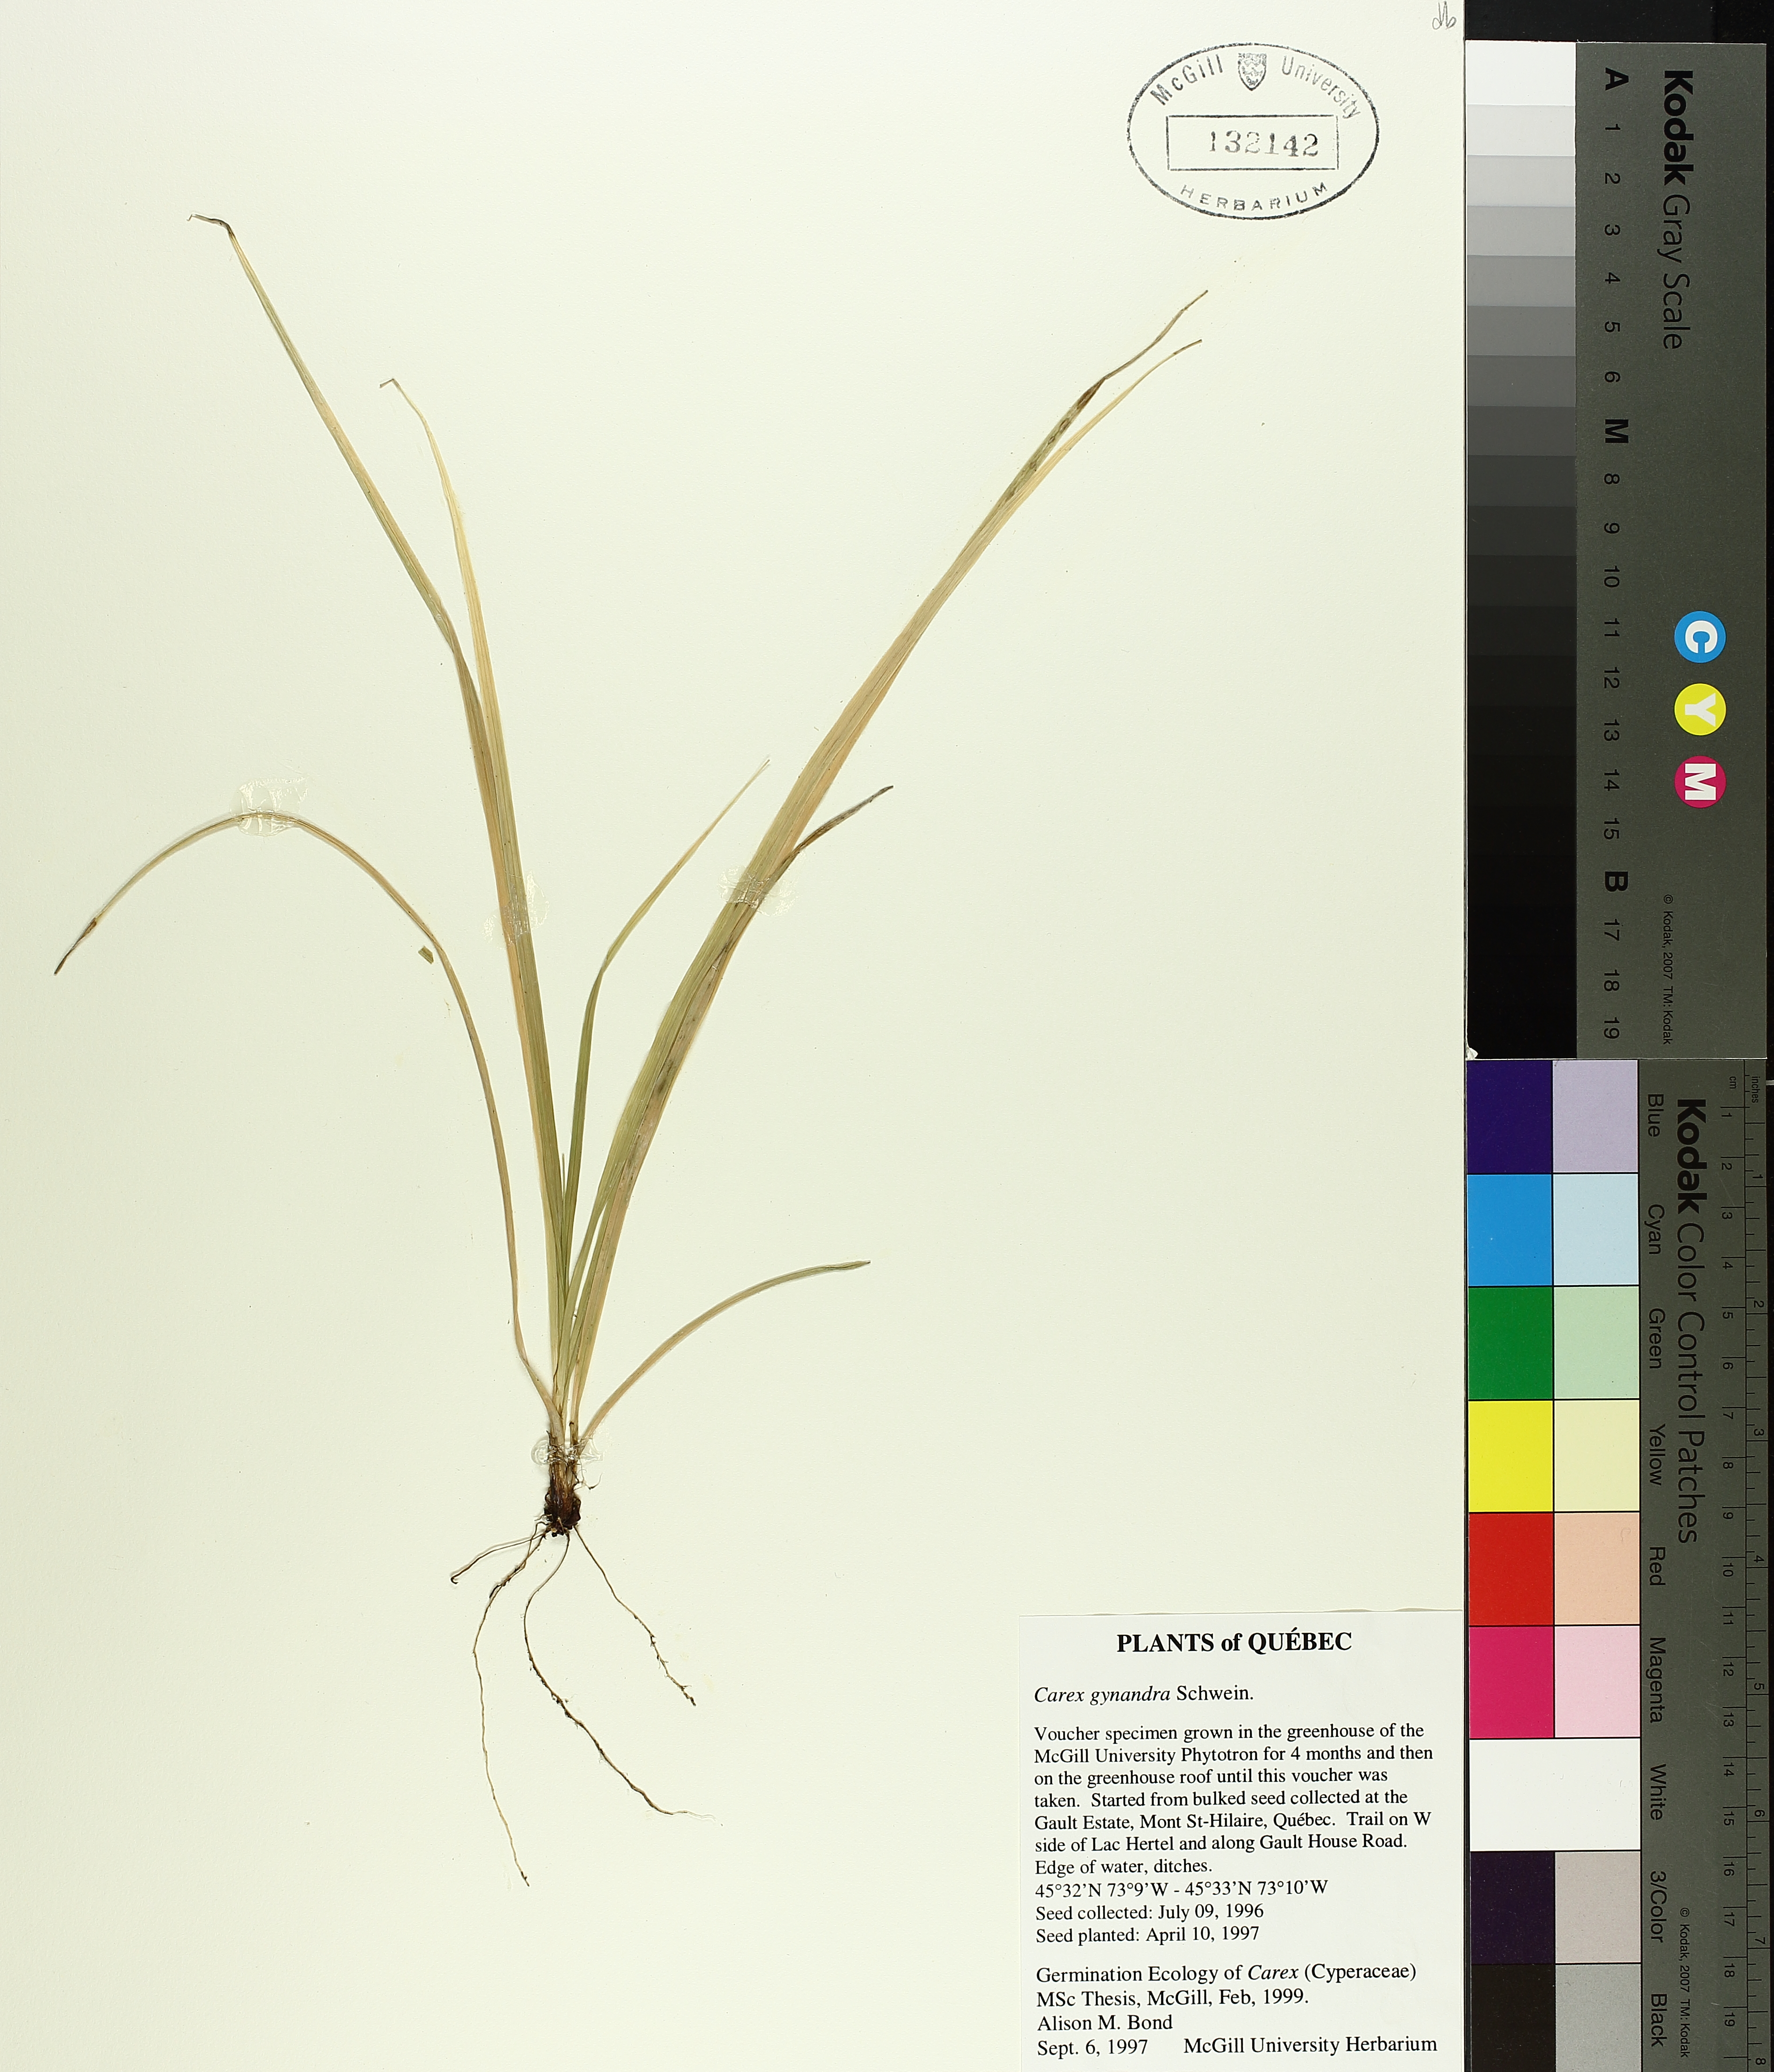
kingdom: Plantae
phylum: Tracheophyta
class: Liliopsida
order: Poales
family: Cyperaceae
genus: Carex
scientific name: Carex gynandra
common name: Nodding sedge
